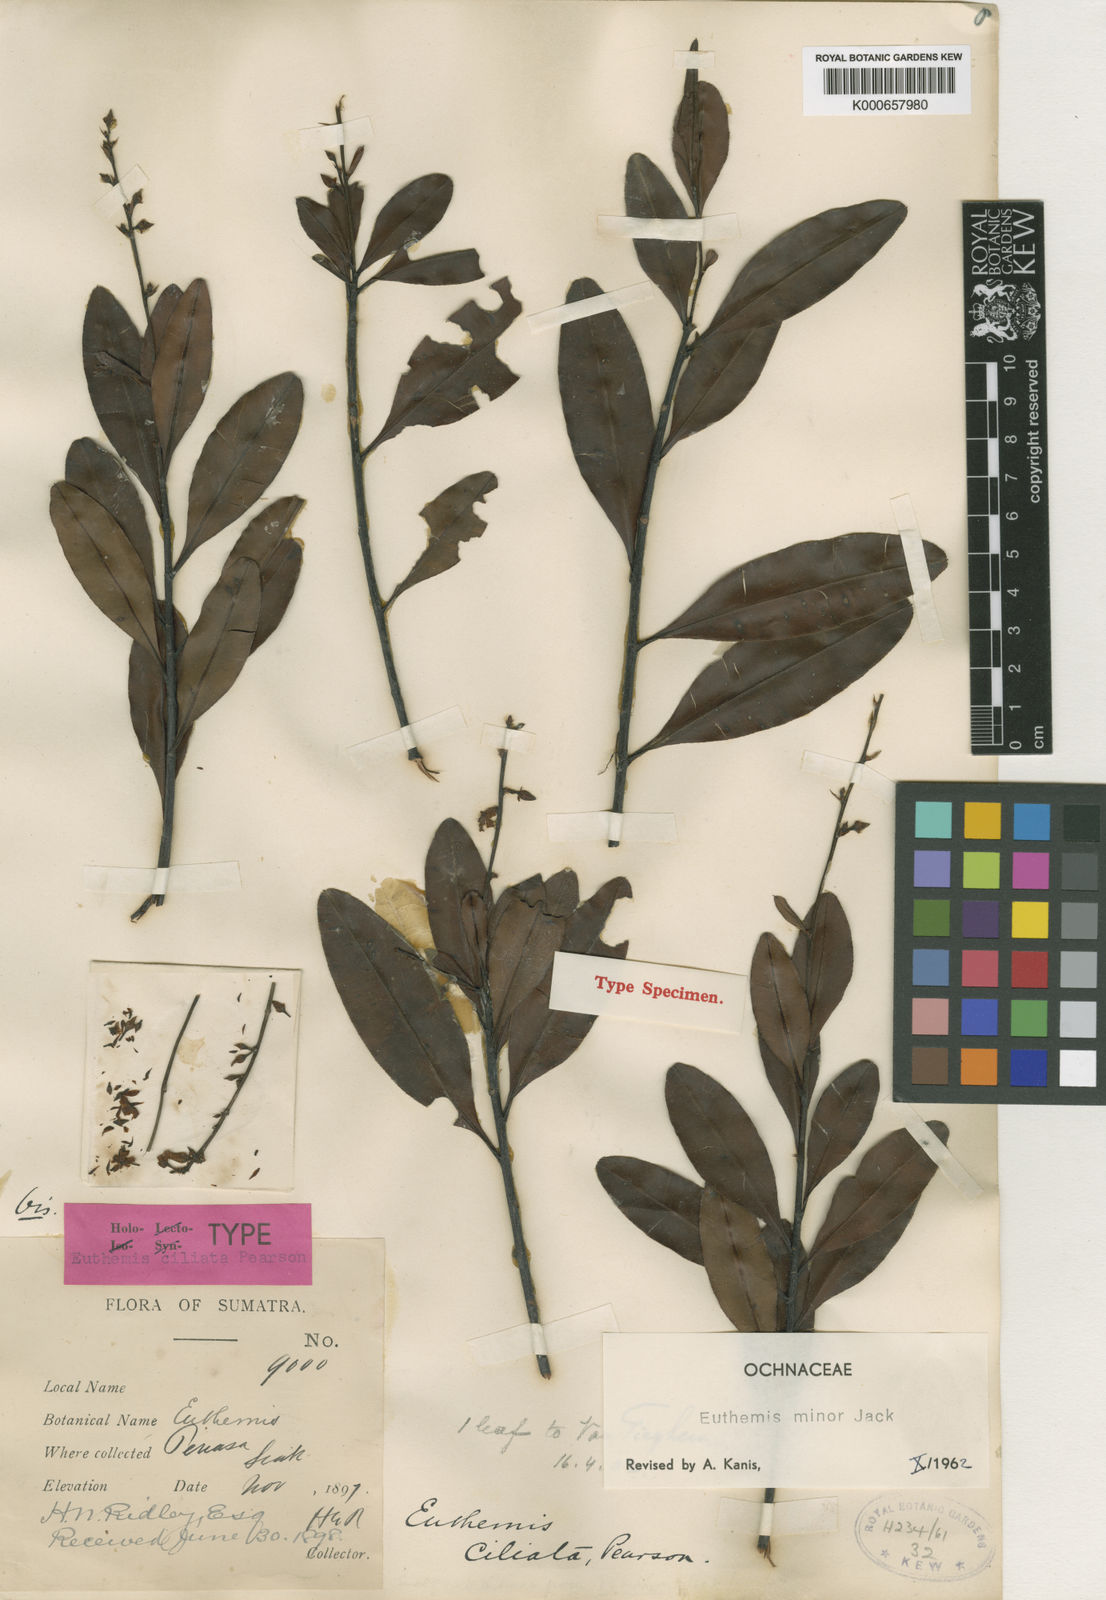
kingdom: Plantae
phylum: Tracheophyta
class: Magnoliopsida
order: Malpighiales
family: Ochnaceae
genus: Euthemis
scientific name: Euthemis minor
